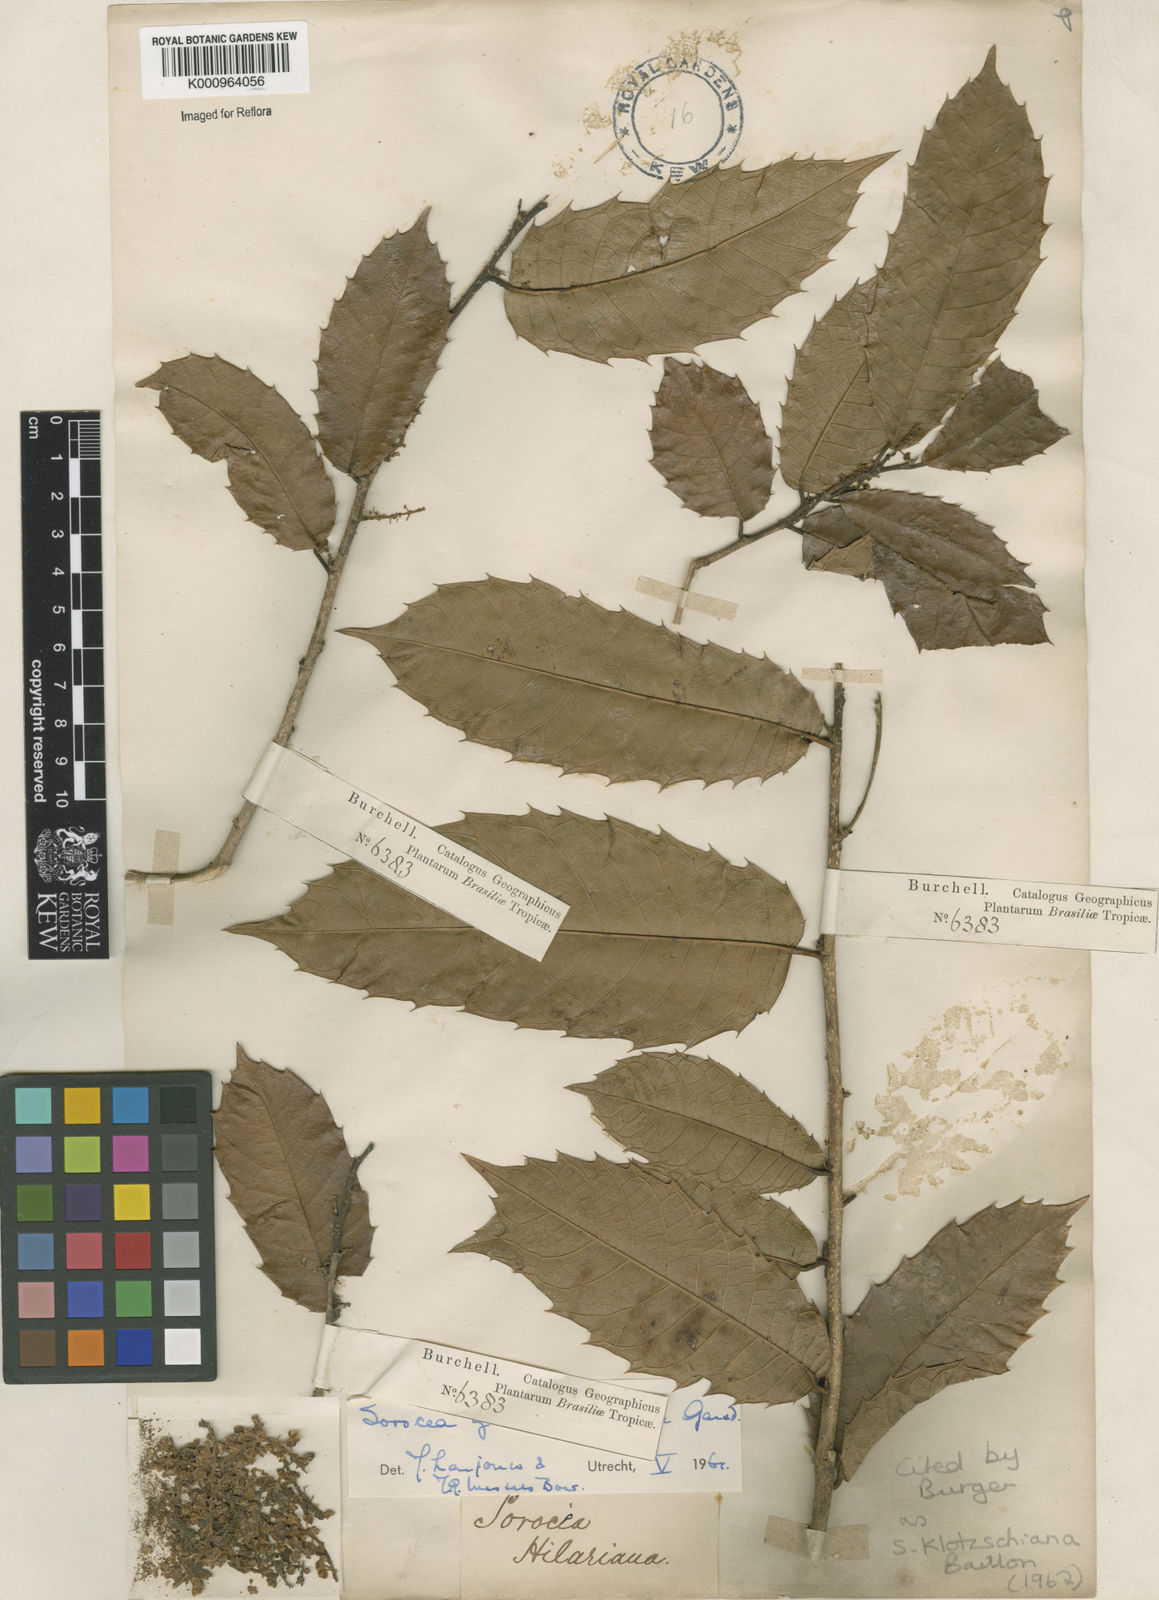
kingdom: Plantae
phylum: Tracheophyta
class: Magnoliopsida
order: Rosales
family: Moraceae
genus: Sorocea
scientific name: Sorocea guilleminiana
